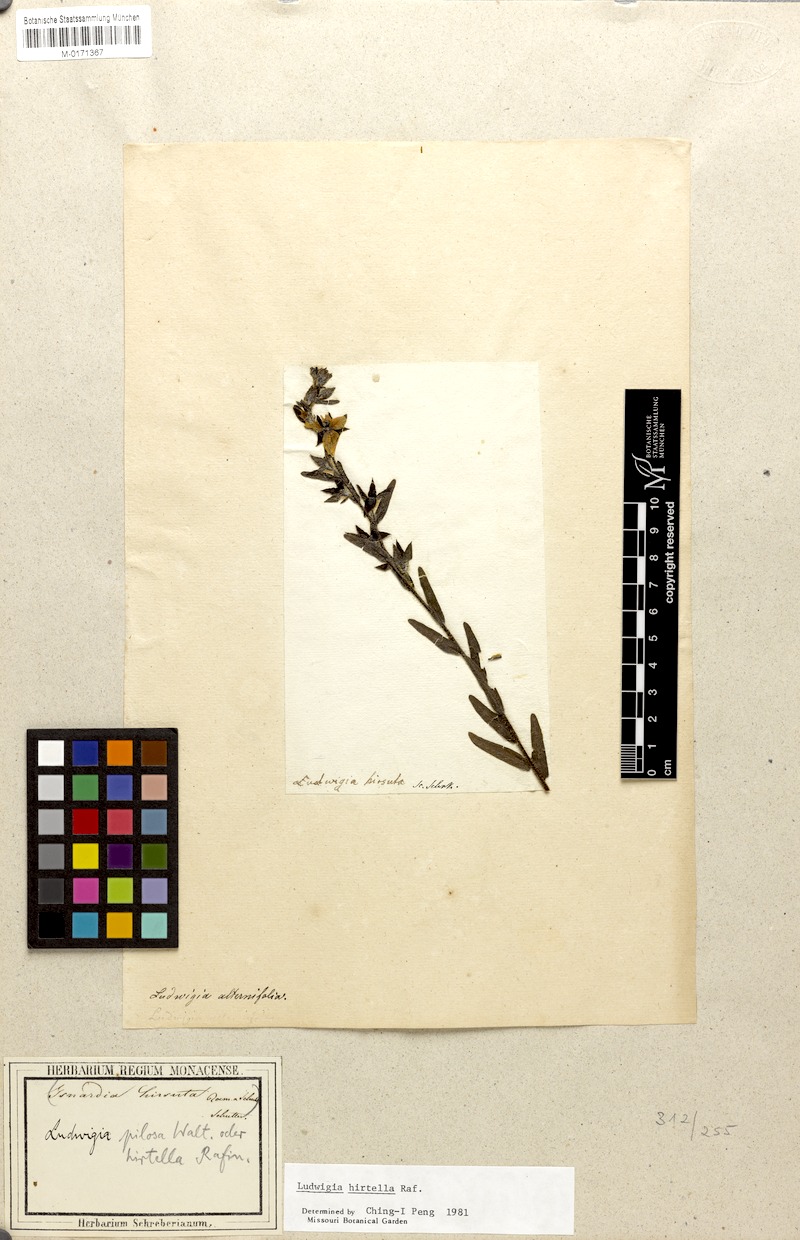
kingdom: Plantae
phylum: Tracheophyta
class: Magnoliopsida
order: Myrtales
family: Onagraceae
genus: Ludwigia
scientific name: Ludwigia hirtella
